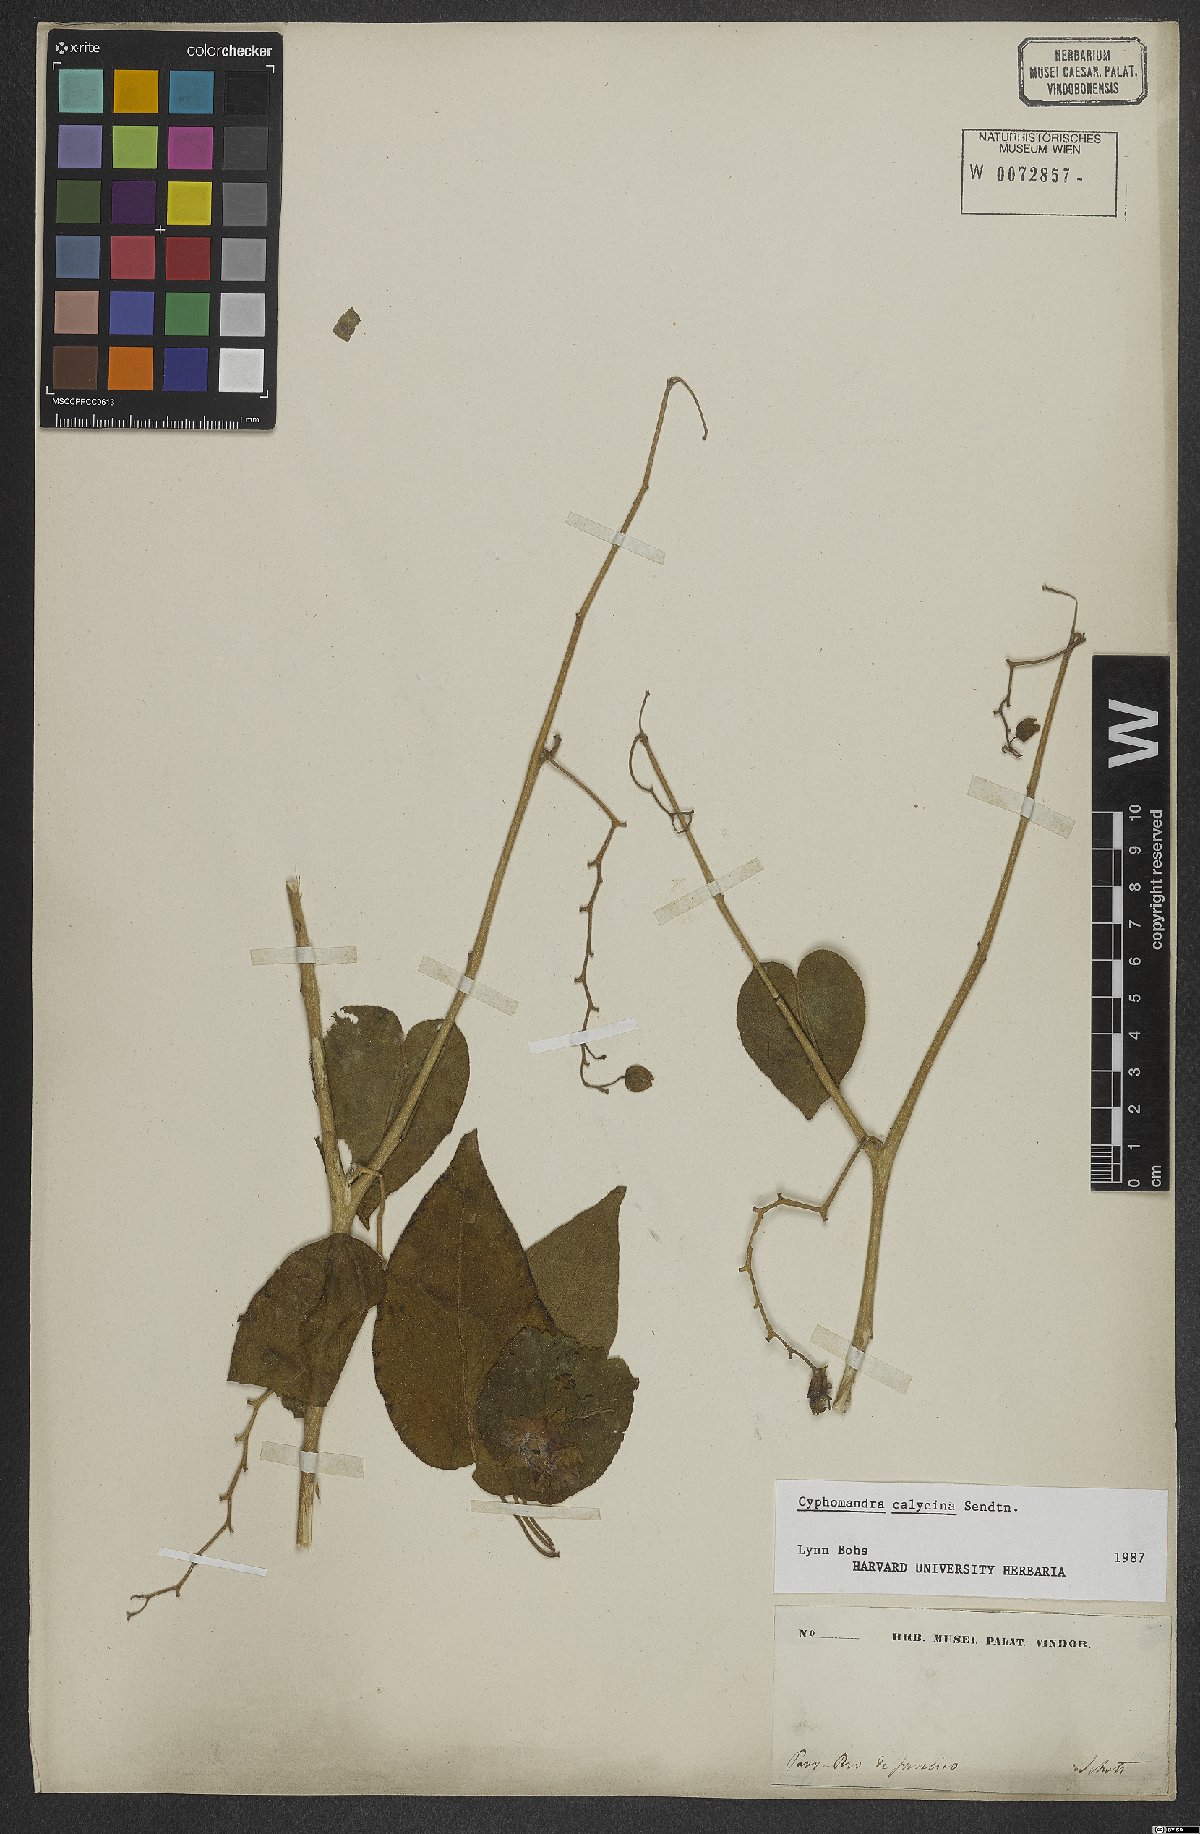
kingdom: Plantae
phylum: Tracheophyta
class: Magnoliopsida
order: Solanales
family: Solanaceae
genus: Solanum
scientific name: Solanum latiflorum
